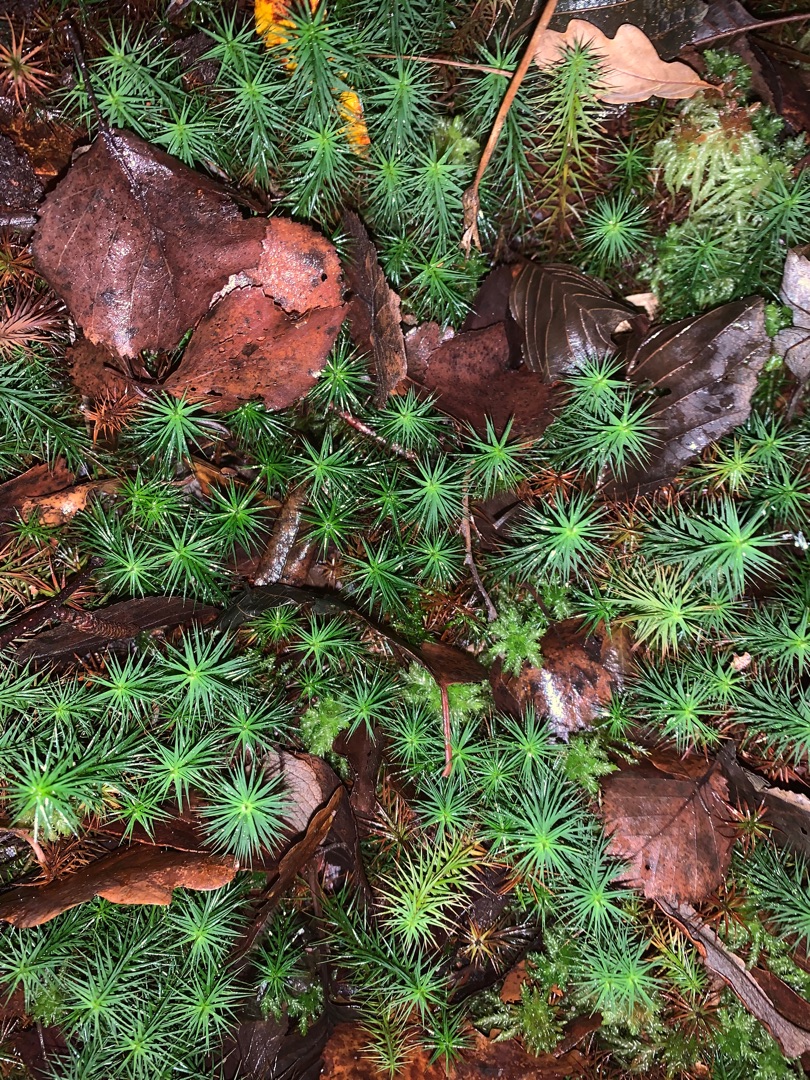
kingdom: Plantae
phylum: Bryophyta
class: Polytrichopsida
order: Polytrichales
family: Polytrichaceae
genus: Polytrichum
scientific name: Polytrichum commune
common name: Almindelig jomfruhår
